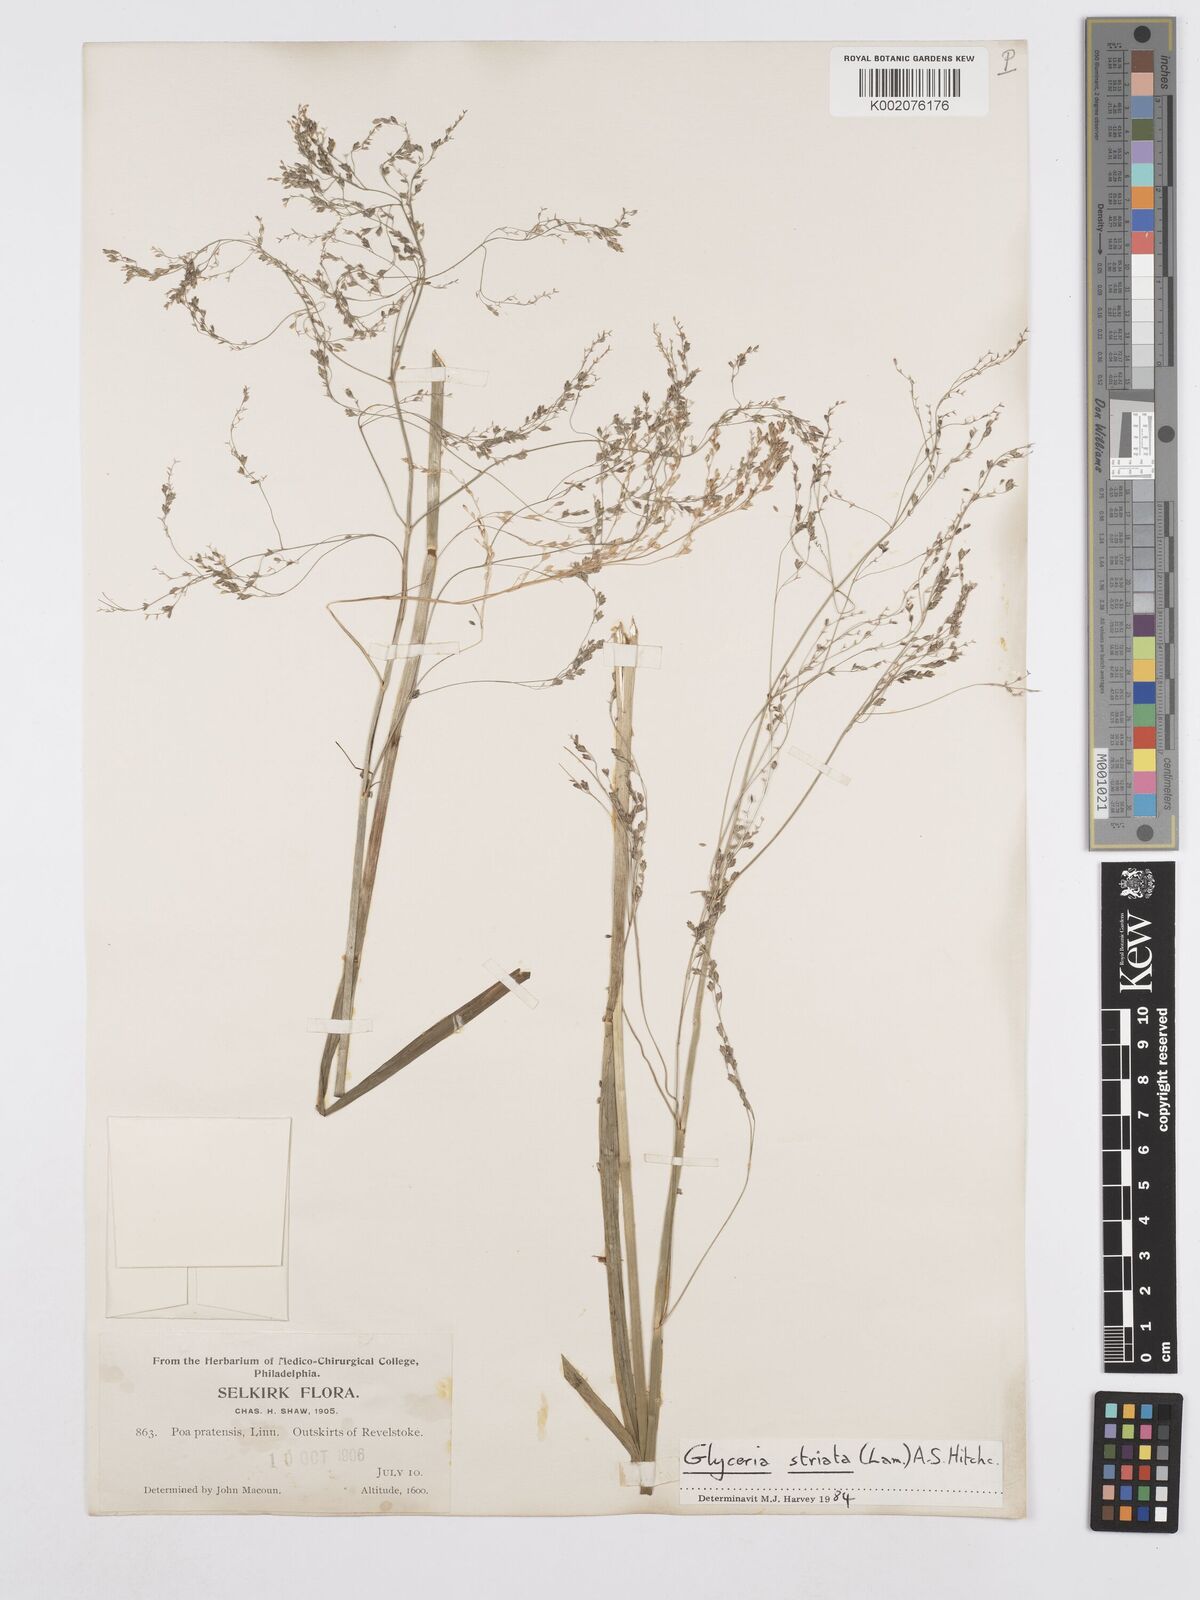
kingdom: Plantae
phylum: Tracheophyta
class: Liliopsida
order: Poales
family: Poaceae
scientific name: Poaceae
